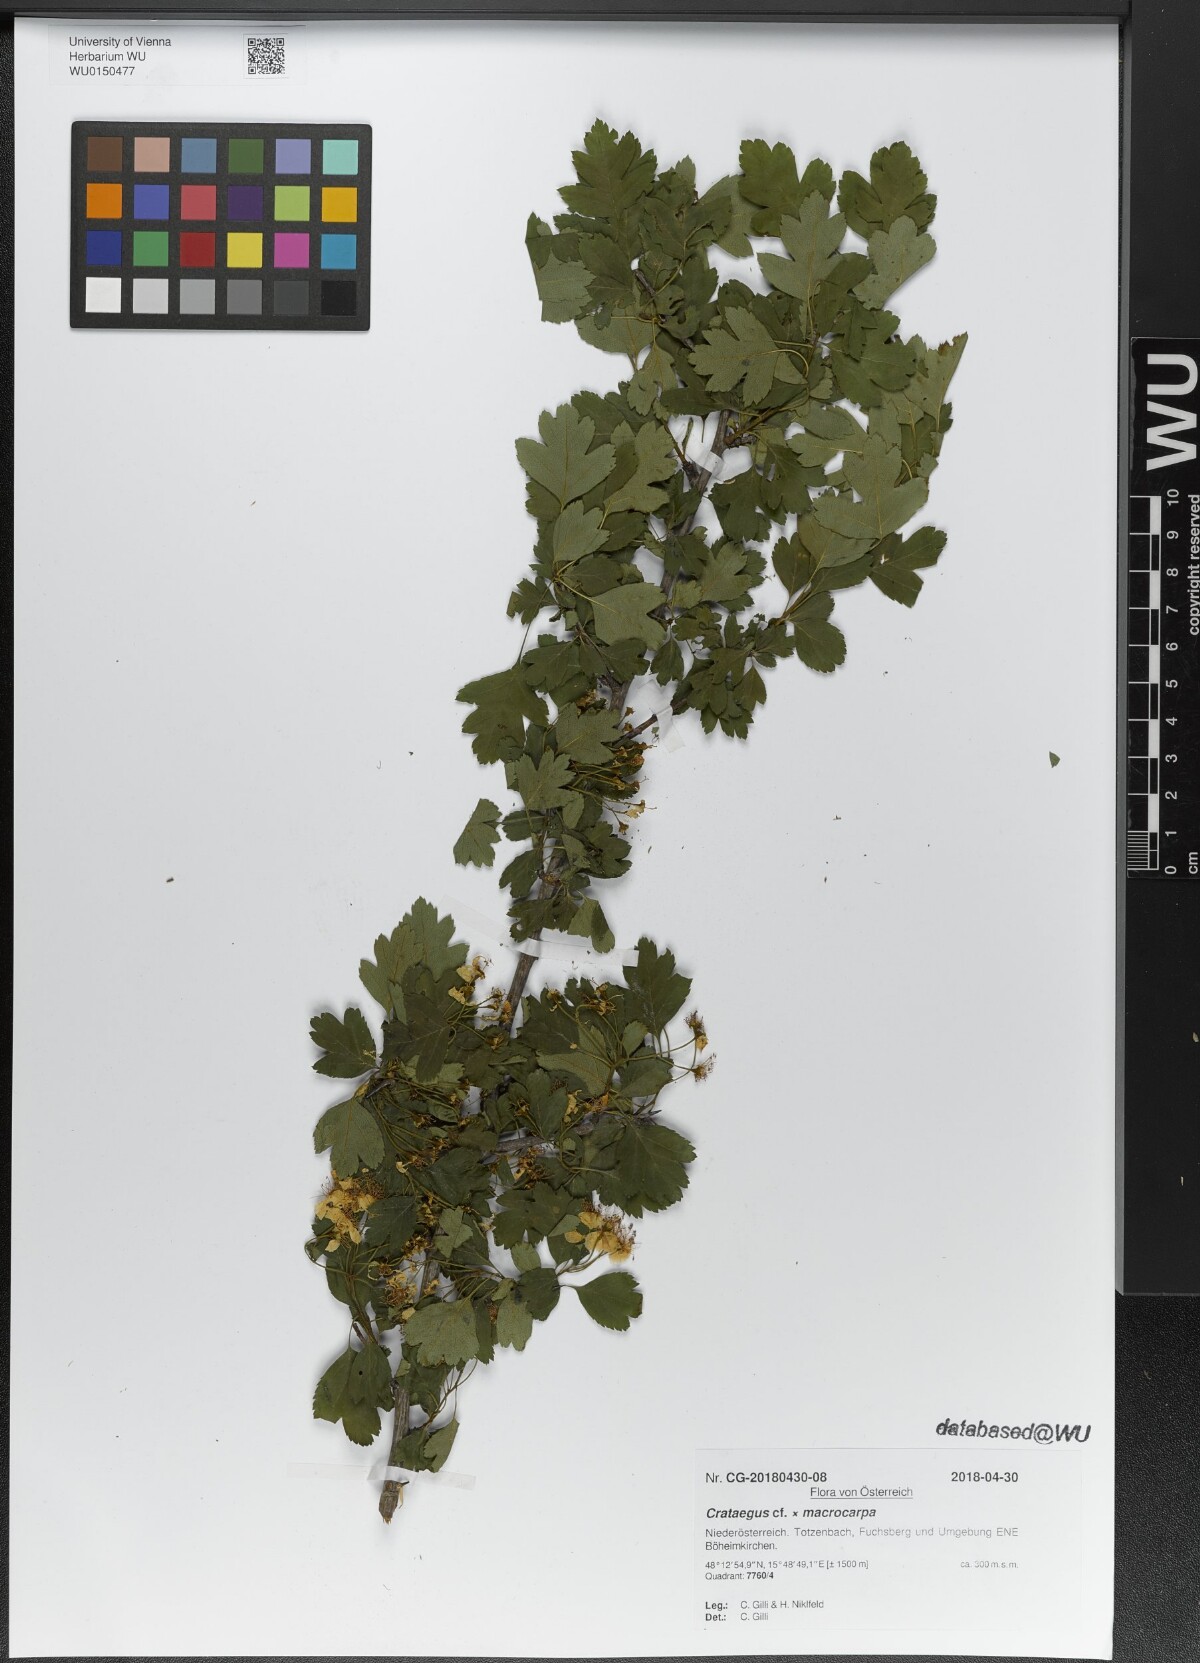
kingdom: Plantae
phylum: Tracheophyta
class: Magnoliopsida
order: Rosales
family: Rosaceae
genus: Crataegus
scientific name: Crataegus macrocarpa
